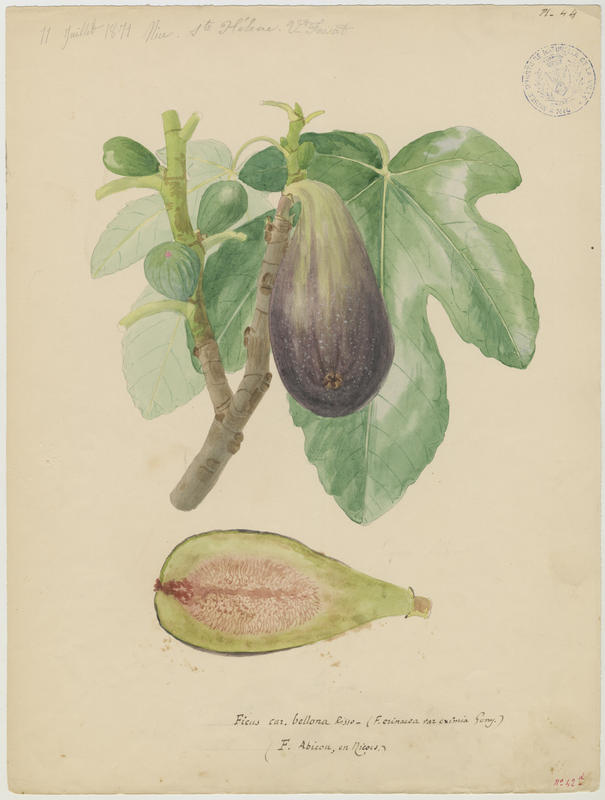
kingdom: Plantae
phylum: Tracheophyta
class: Magnoliopsida
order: Rosales
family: Moraceae
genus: Ficus
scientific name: Ficus carica
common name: Fig
